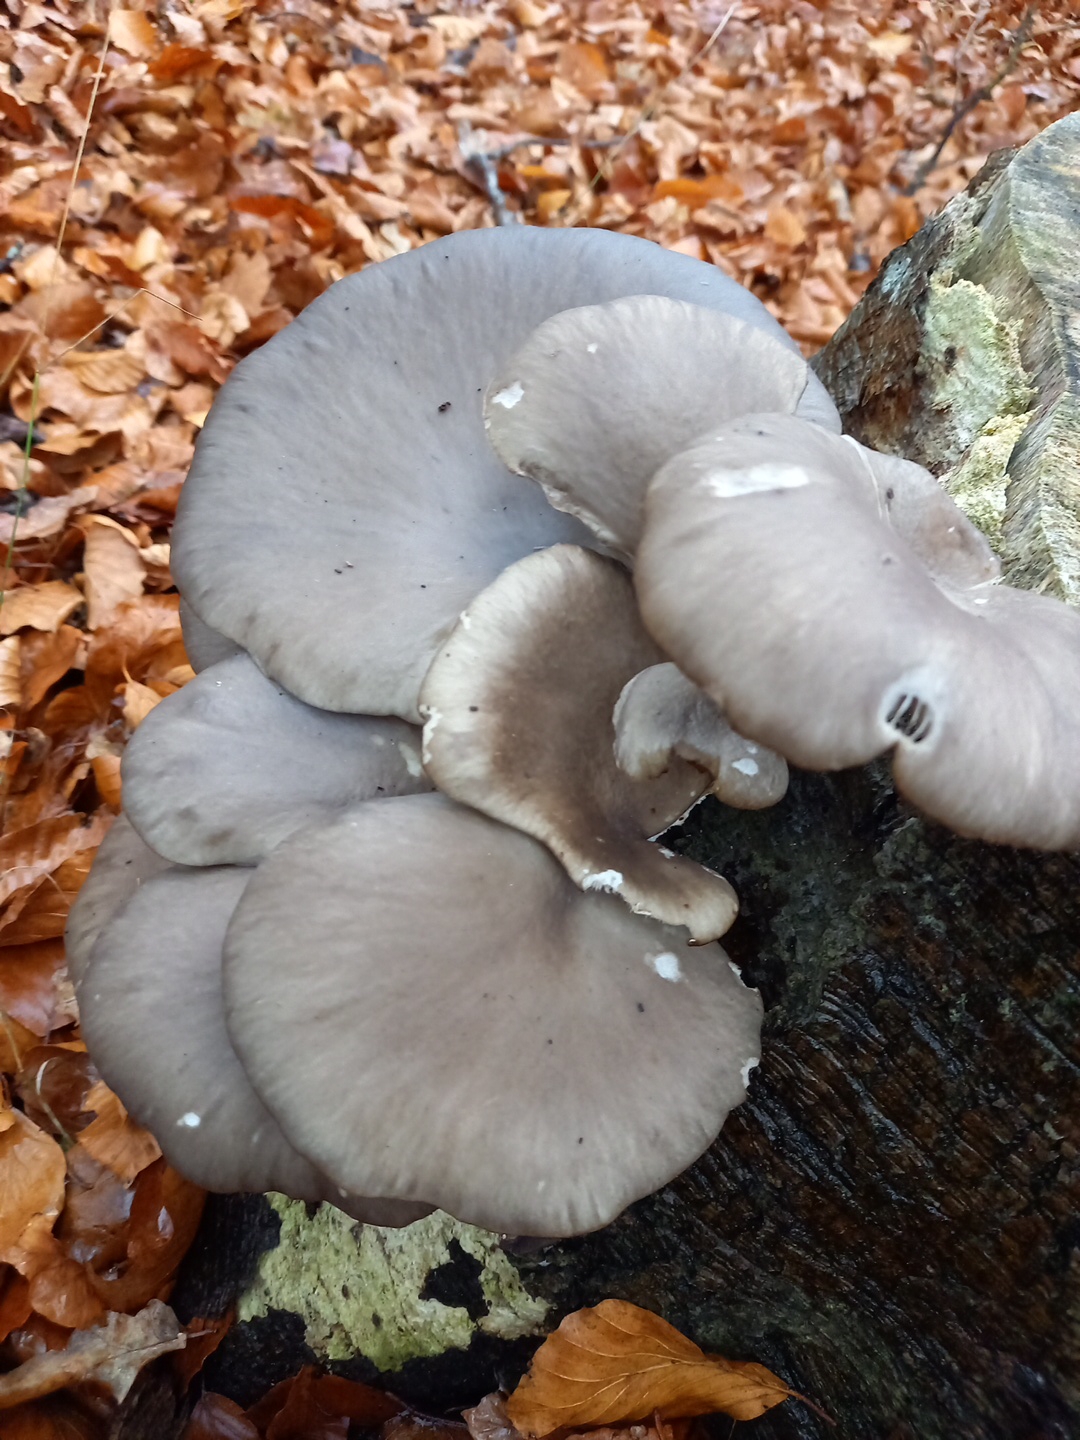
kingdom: Fungi
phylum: Basidiomycota
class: Agaricomycetes
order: Agaricales
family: Pleurotaceae
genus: Pleurotus
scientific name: Pleurotus ostreatus
